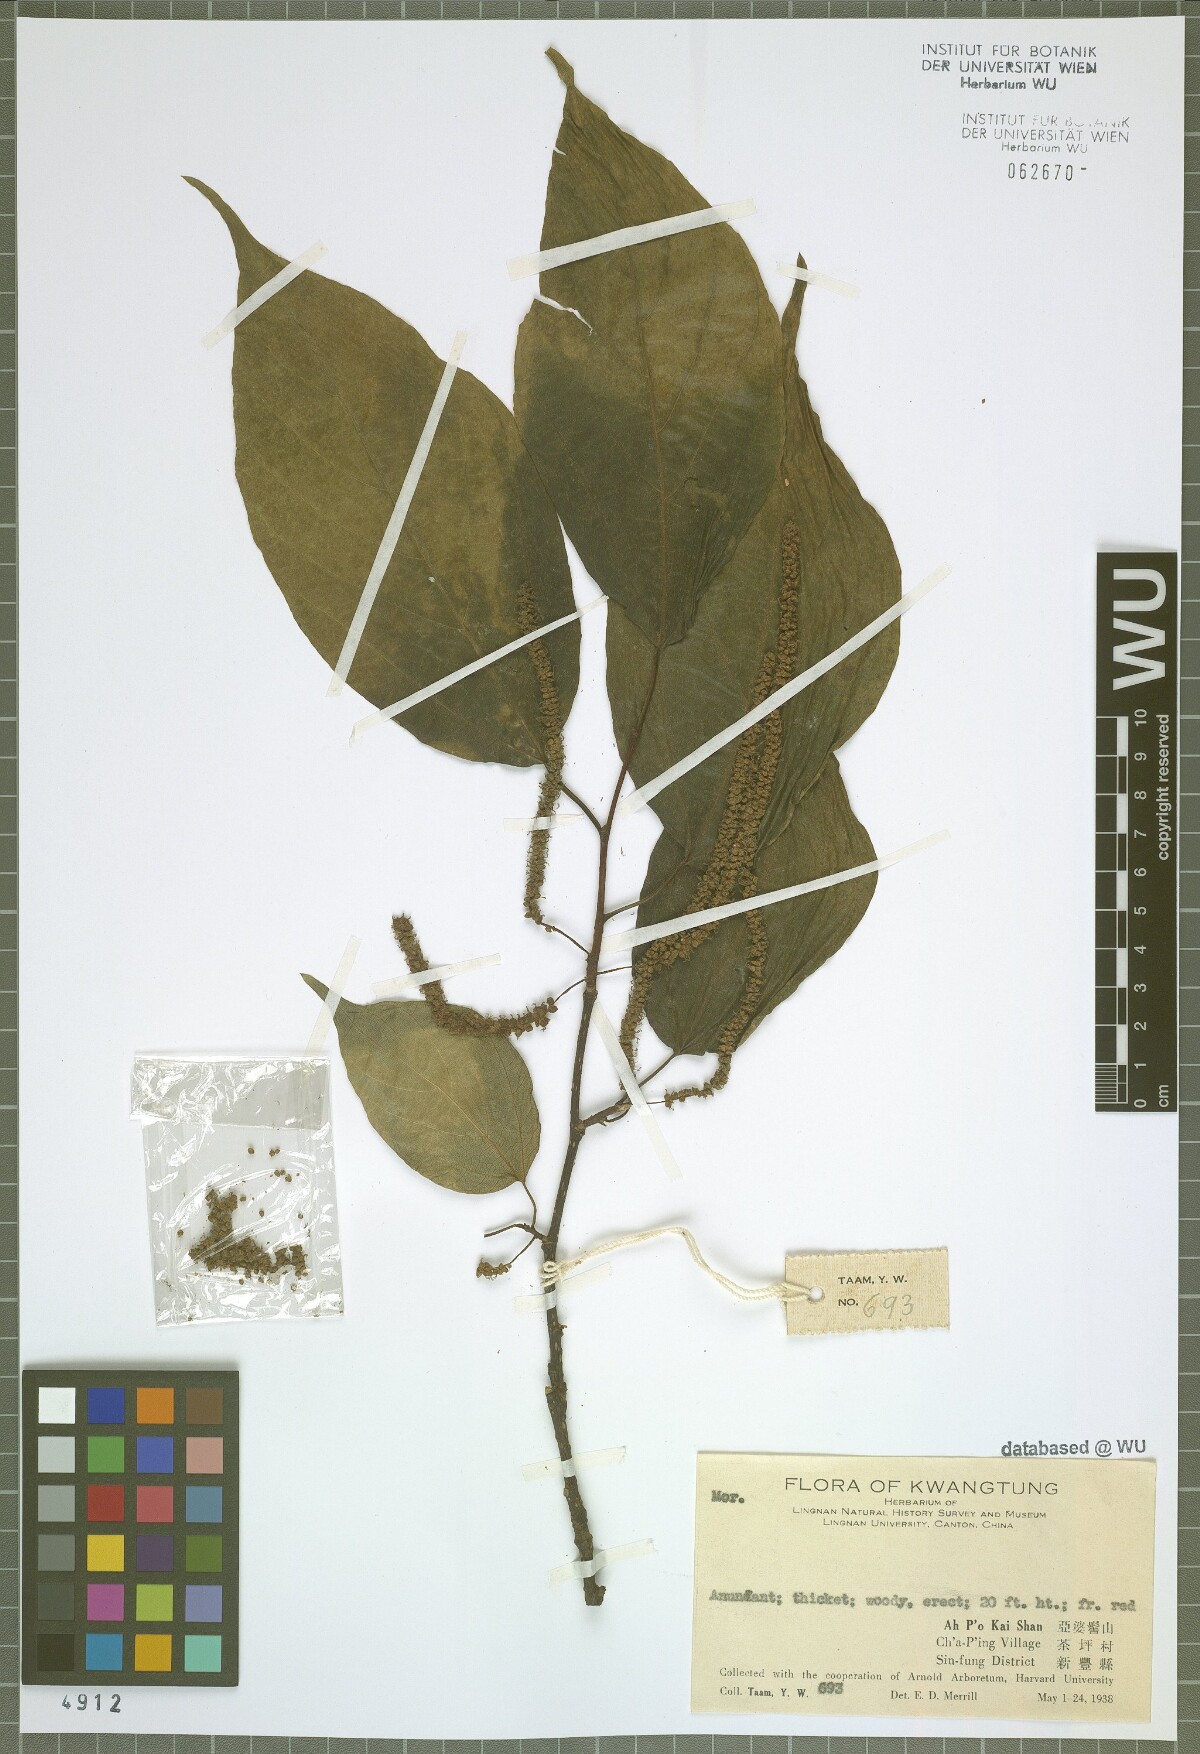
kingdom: Plantae
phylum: Tracheophyta
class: Magnoliopsida
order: Rosales
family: Moraceae
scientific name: Moraceae
